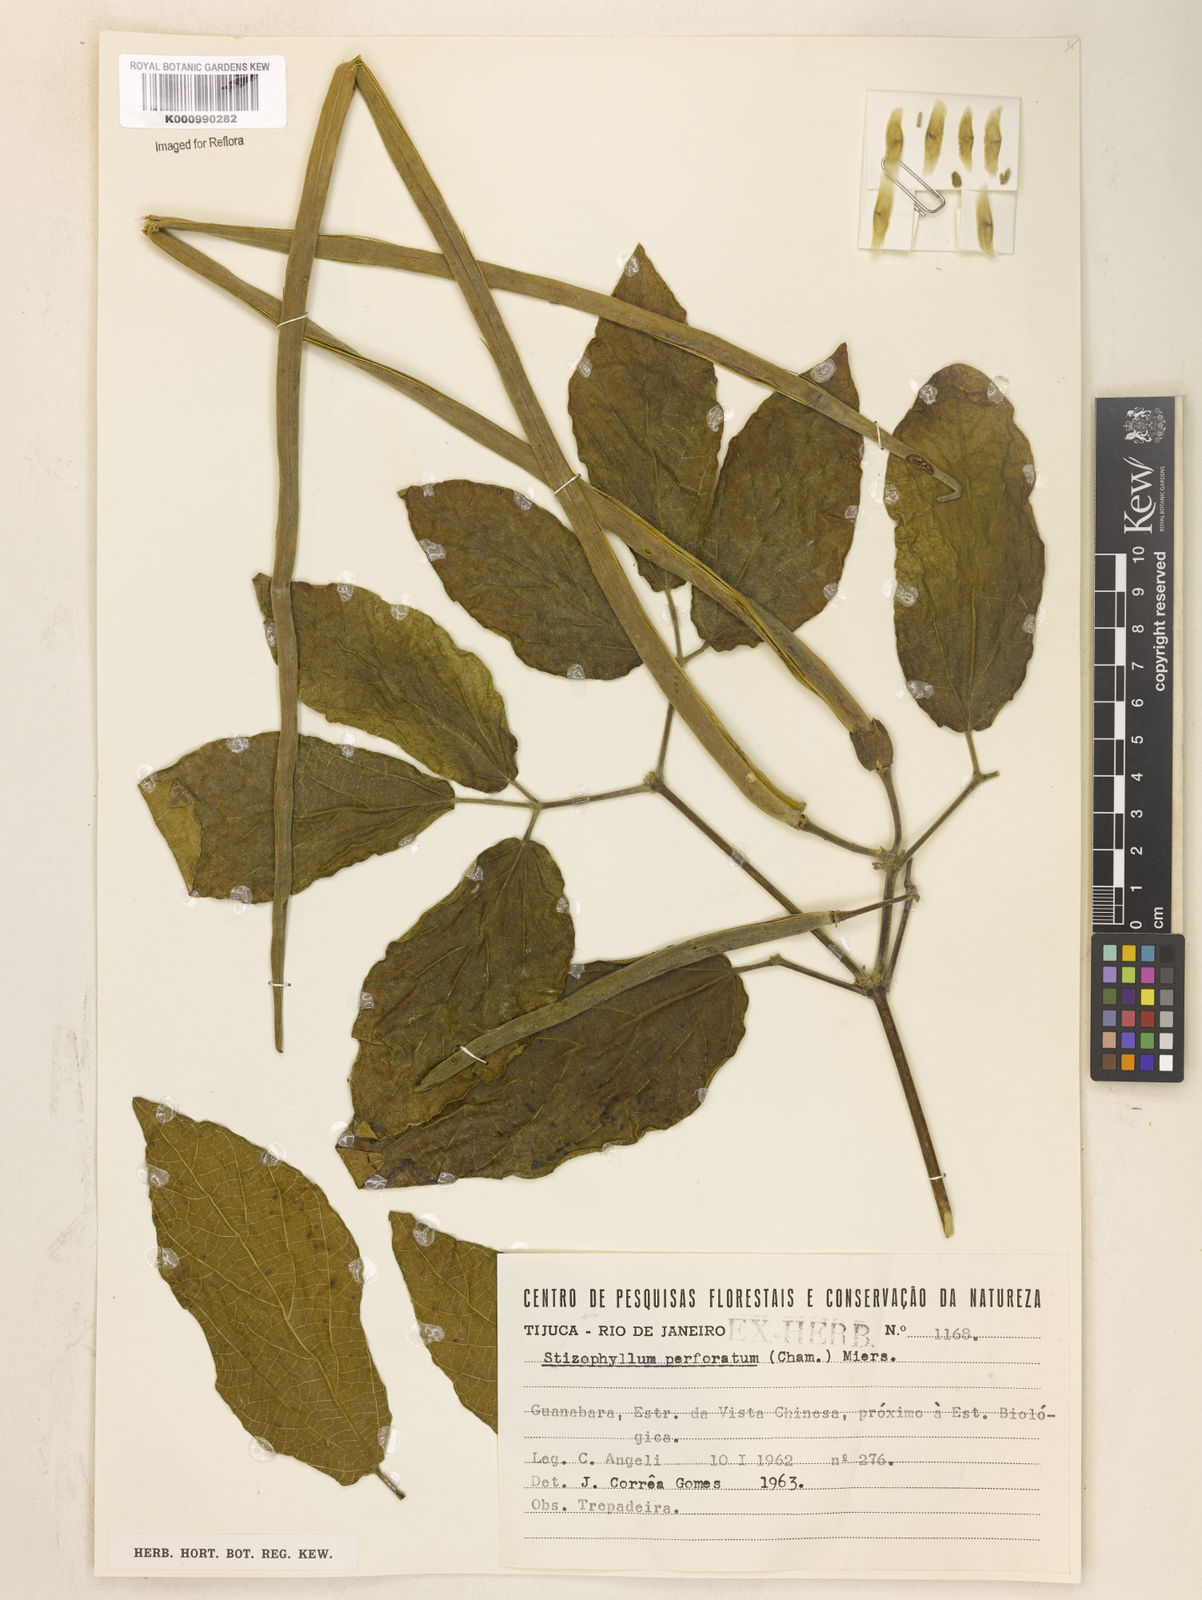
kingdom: Plantae
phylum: Tracheophyta
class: Magnoliopsida
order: Lamiales
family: Bignoniaceae
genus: Stizophyllum
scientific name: Stizophyllum perforatum
